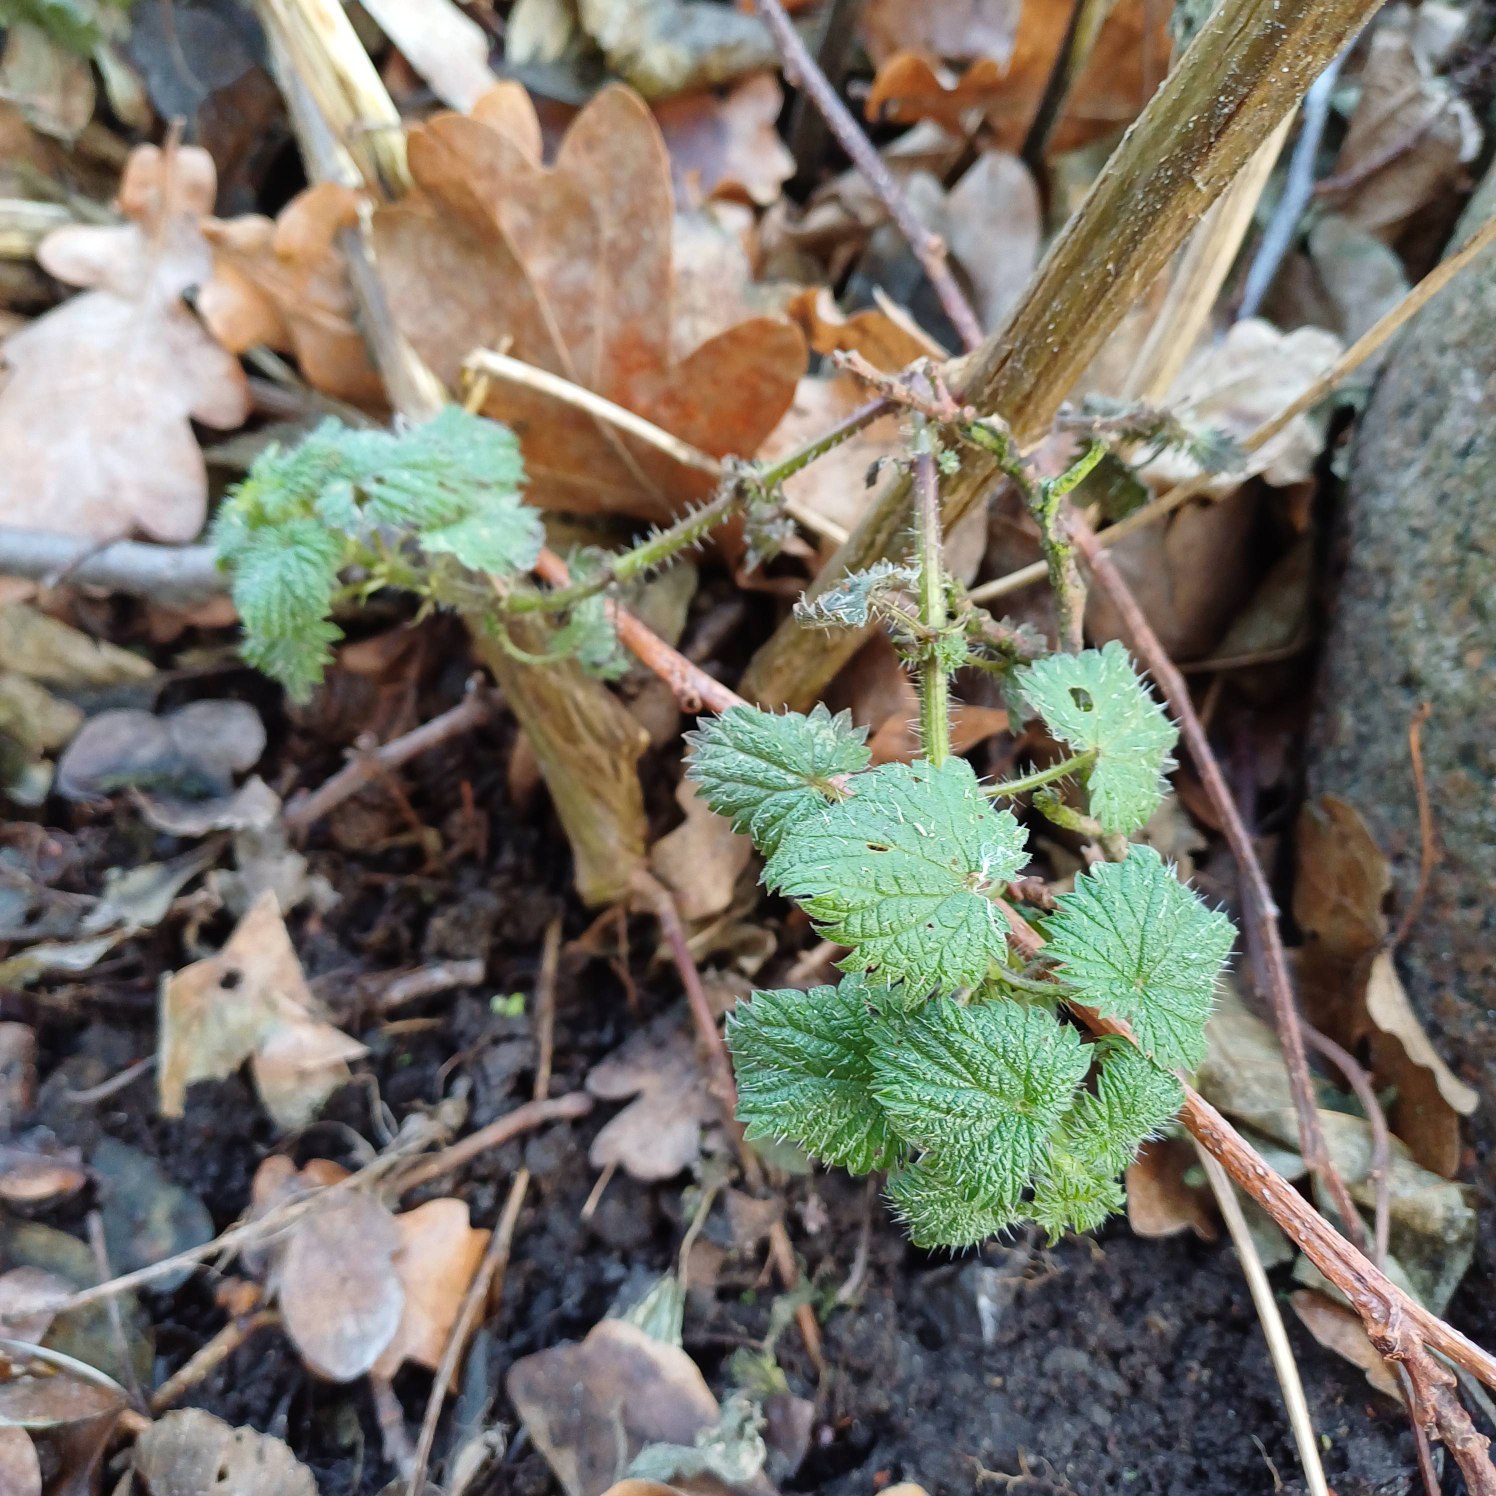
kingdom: Plantae
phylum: Tracheophyta
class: Magnoliopsida
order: Rosales
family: Urticaceae
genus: Urtica
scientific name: Urtica dioica
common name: Stor nælde
